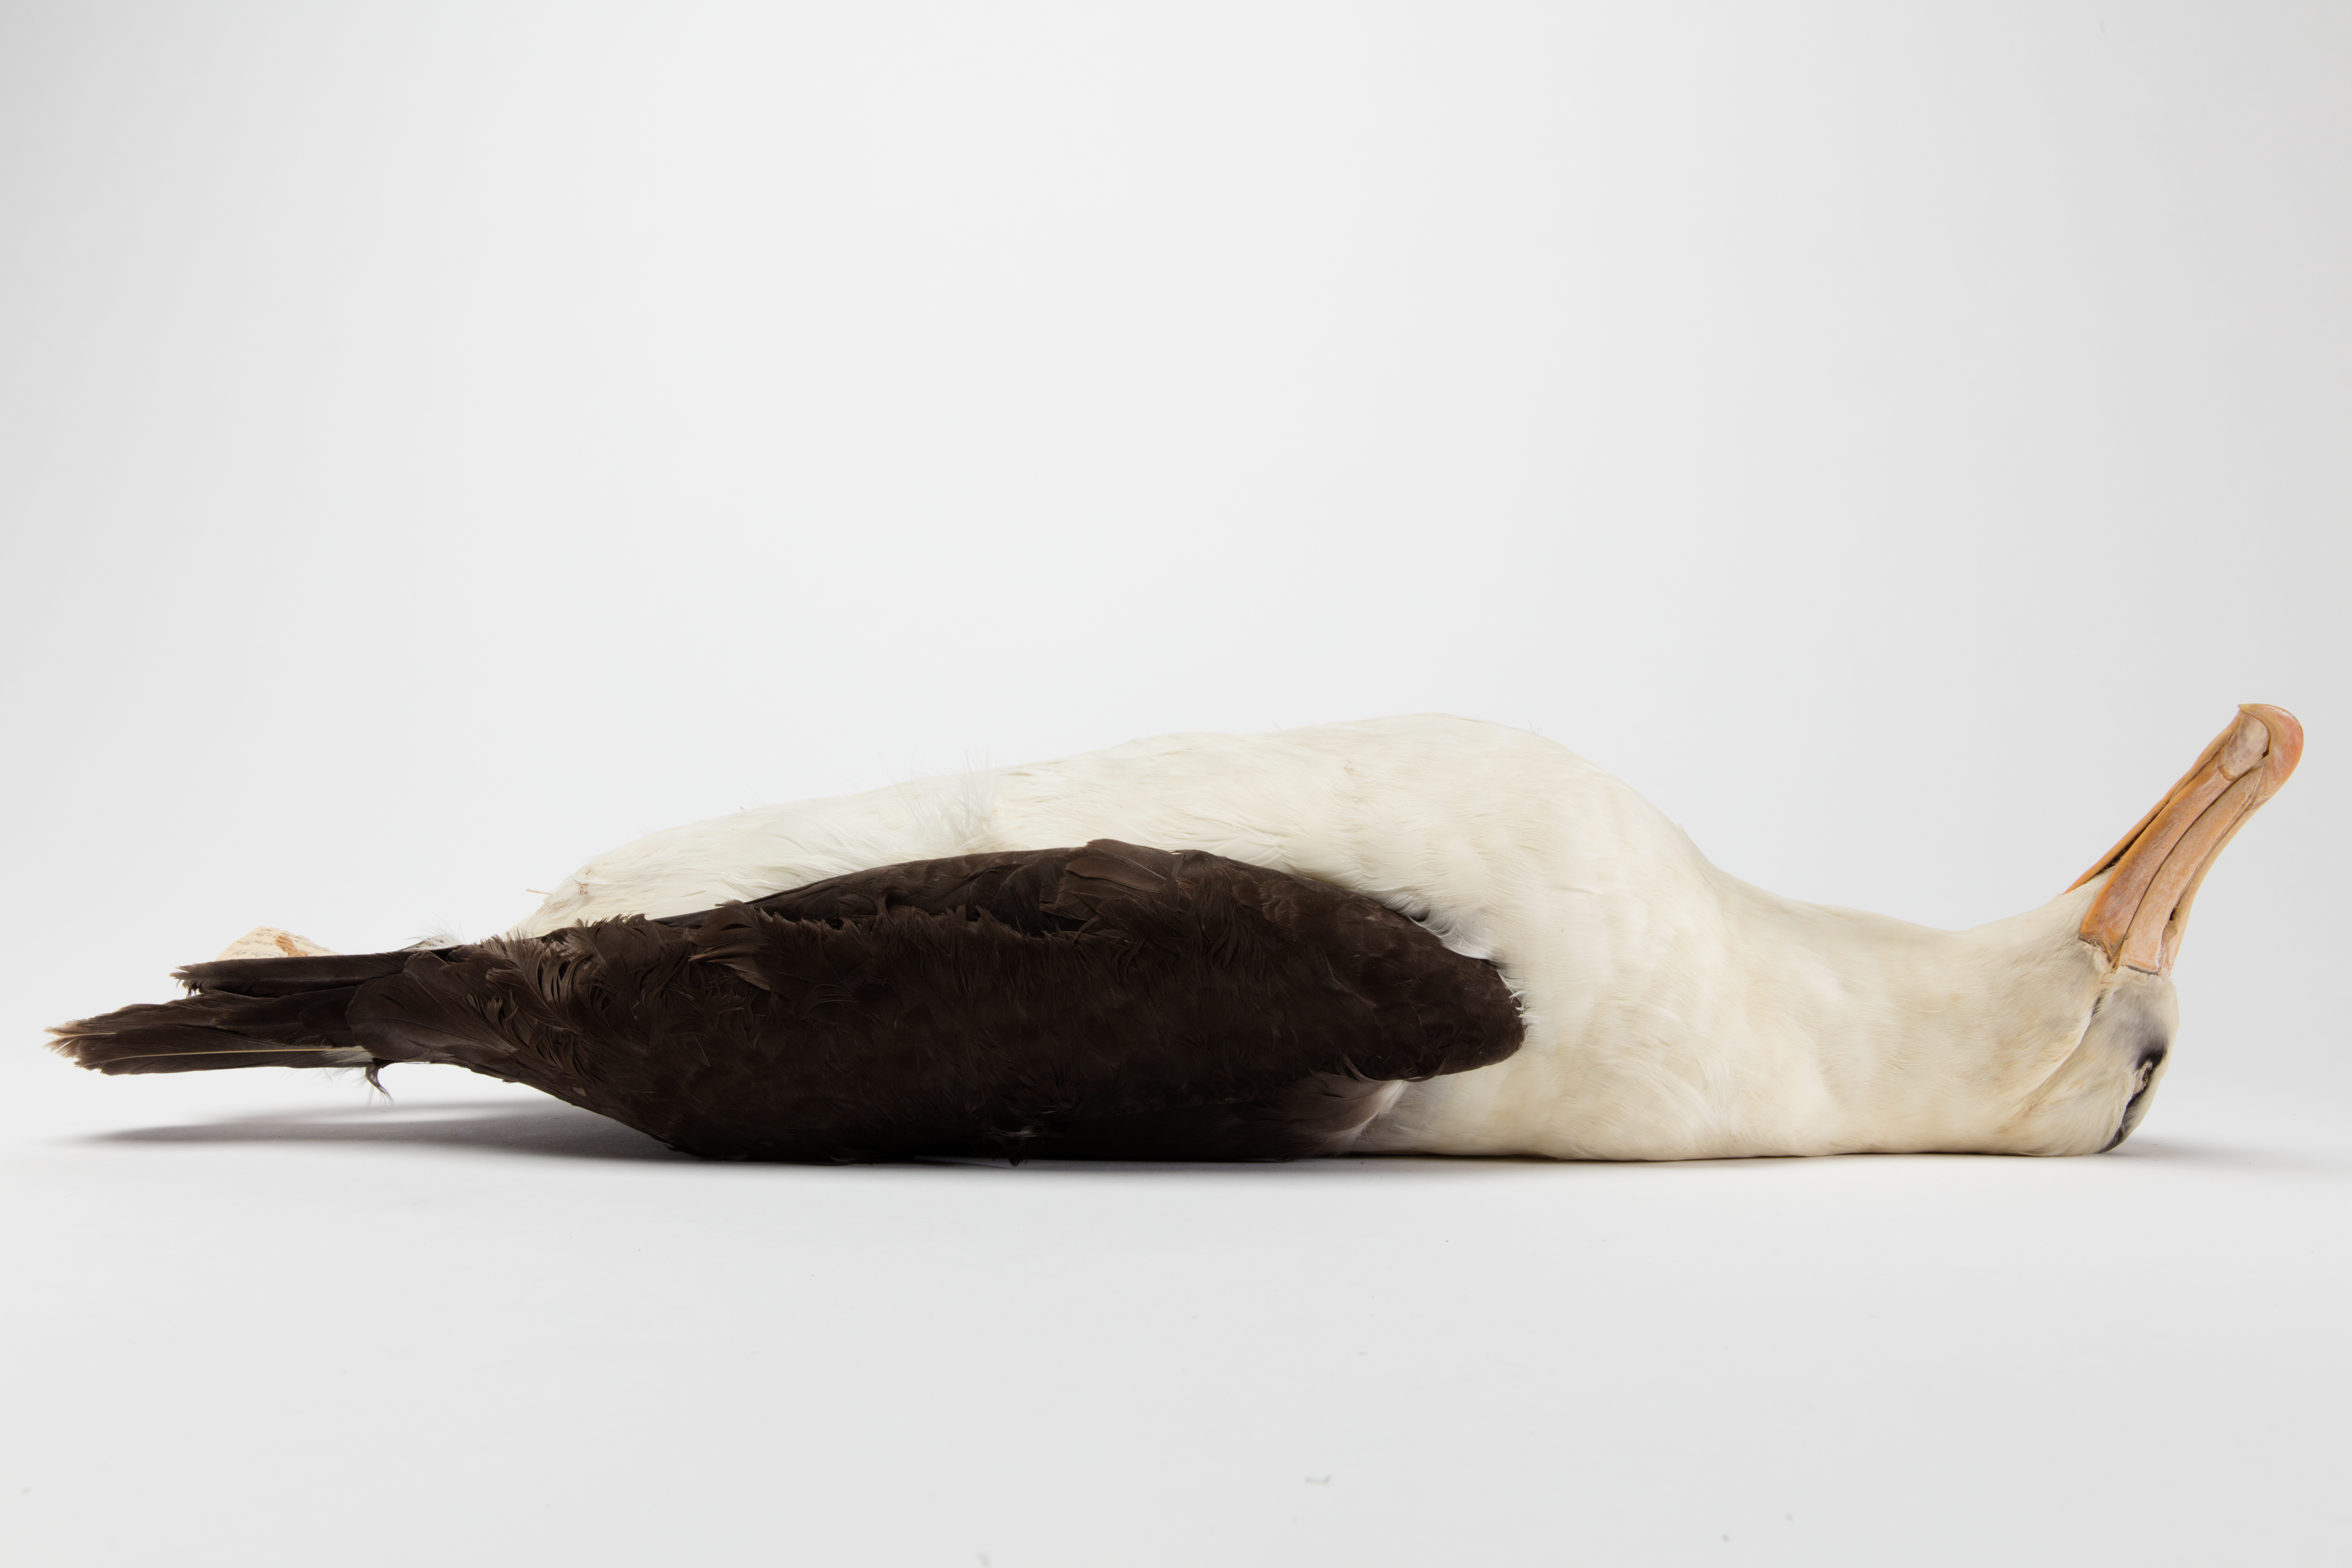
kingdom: Animalia
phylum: Chordata
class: Aves
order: Procellariiformes
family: Diomedeidae
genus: Thalassarche
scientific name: Thalassarche melanophris
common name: Black-browed albatross
